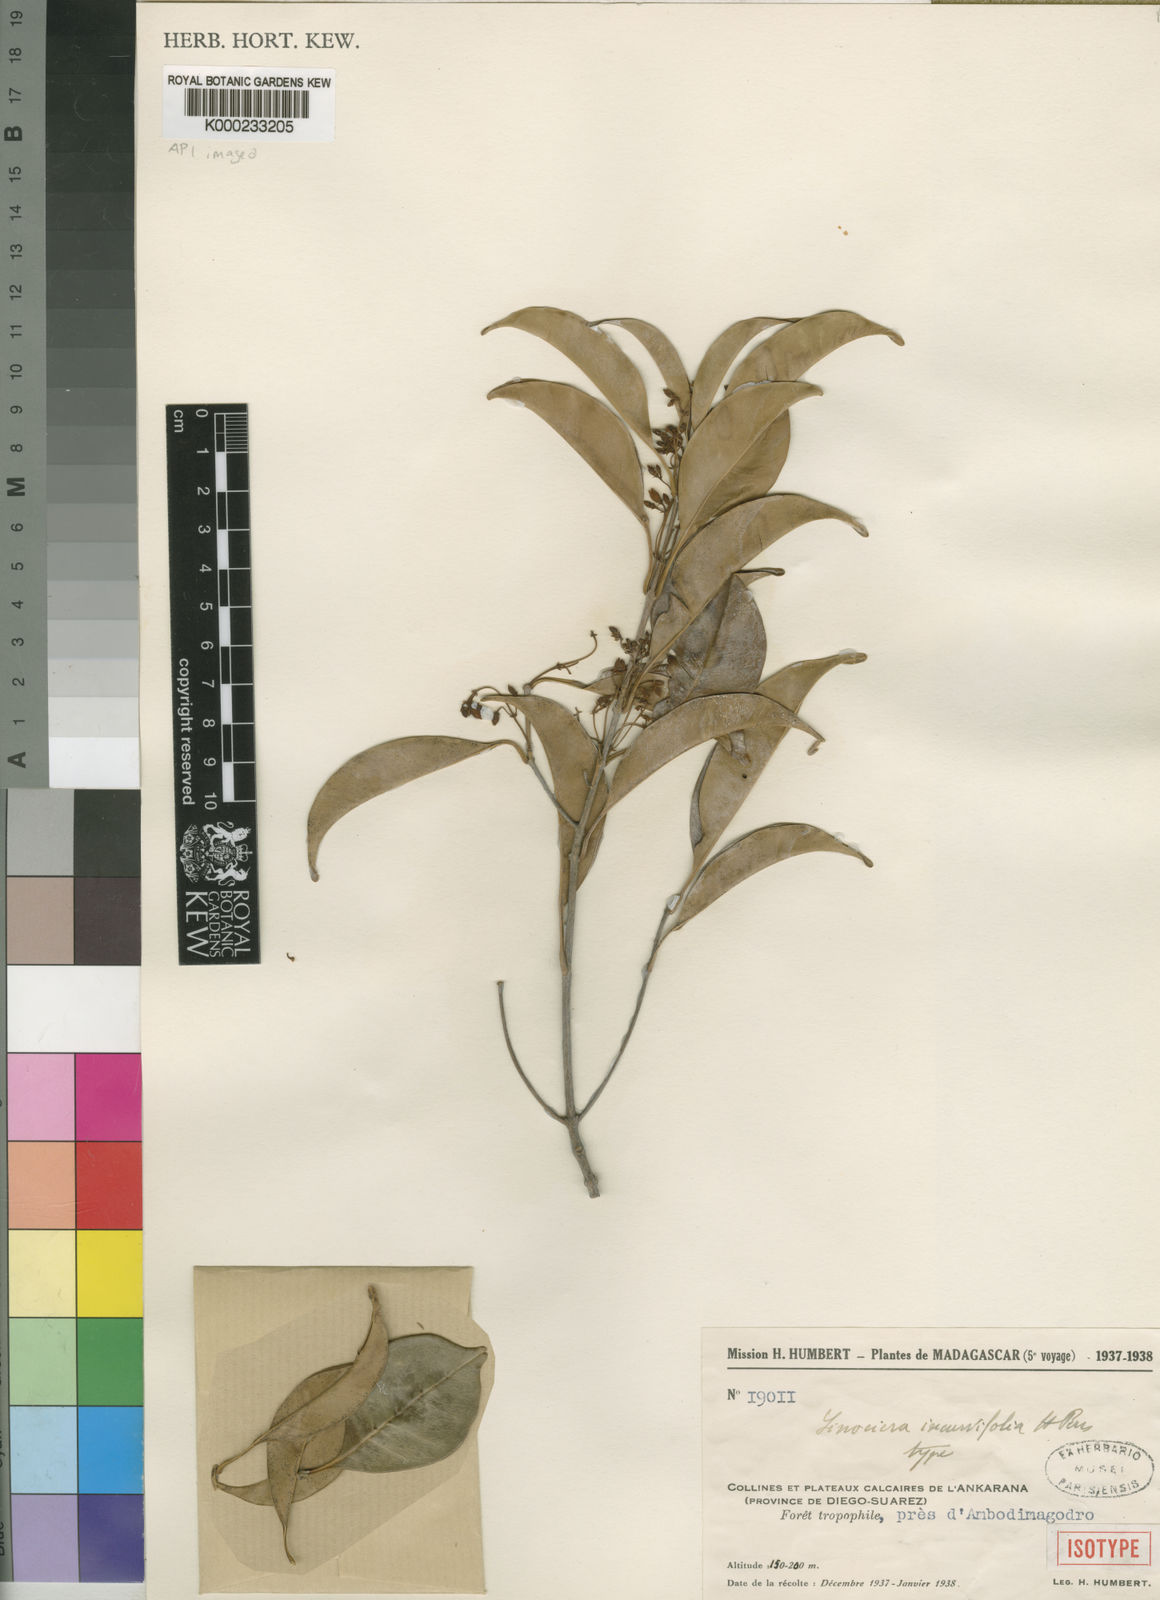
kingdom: Plantae
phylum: Tracheophyta
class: Magnoliopsida
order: Lamiales
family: Oleaceae
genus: Noronhia
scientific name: Noronhia incurvifolia
